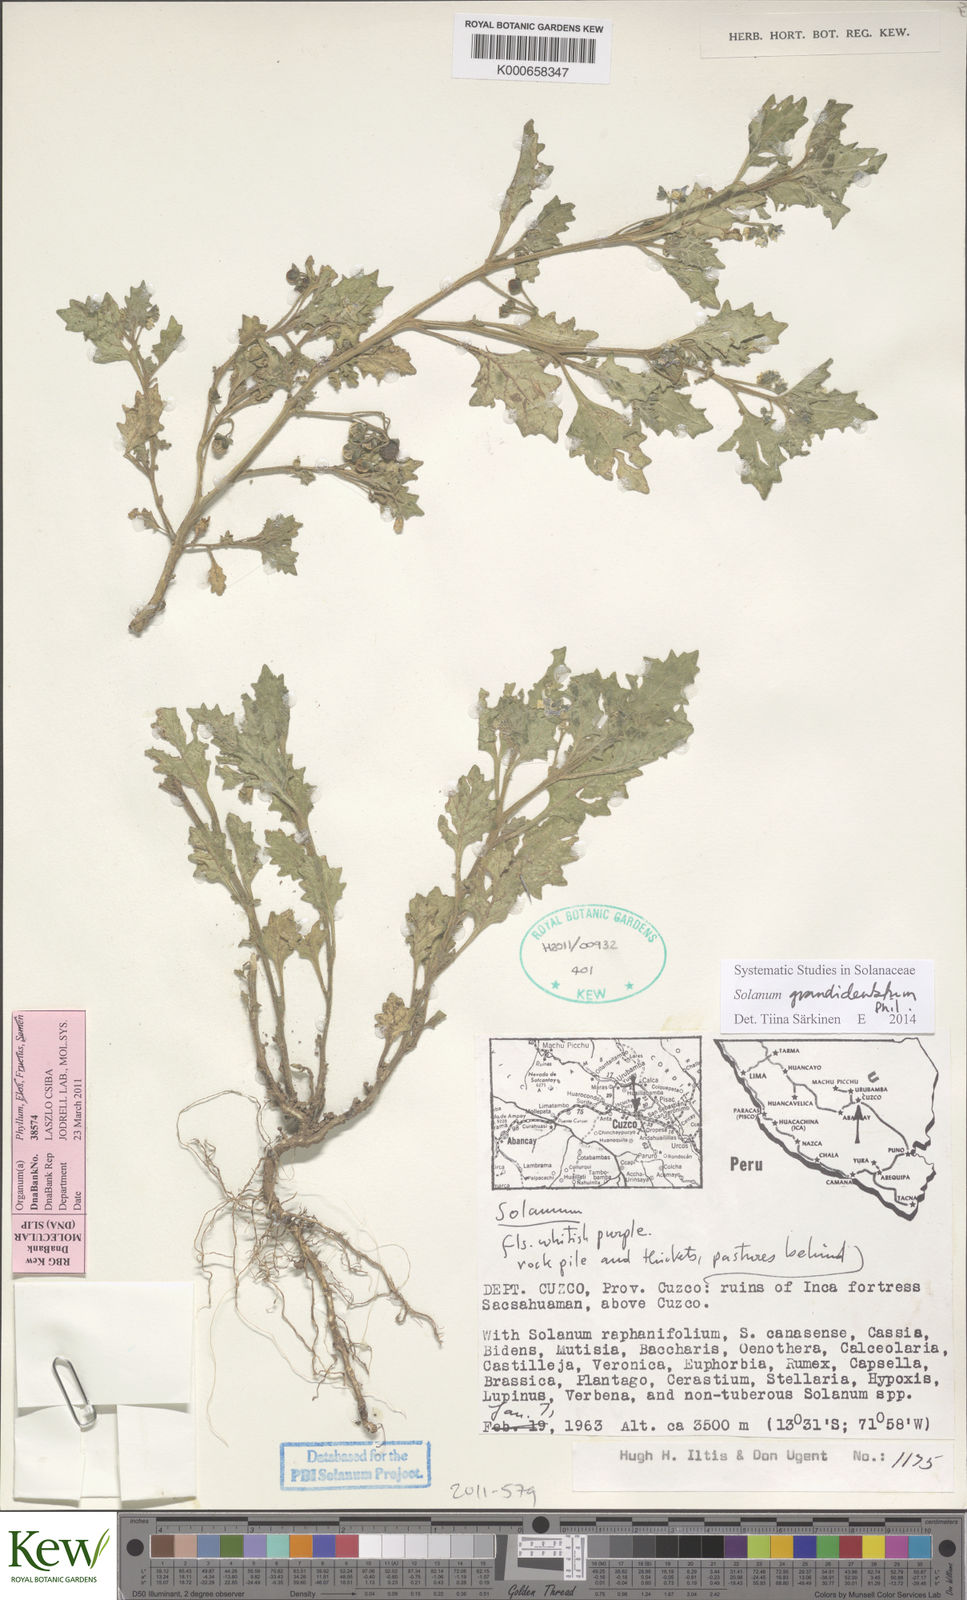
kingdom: Plantae
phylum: Tracheophyta
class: Magnoliopsida
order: Solanales
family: Solanaceae
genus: Solanum
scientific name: Solanum grandidentatum
